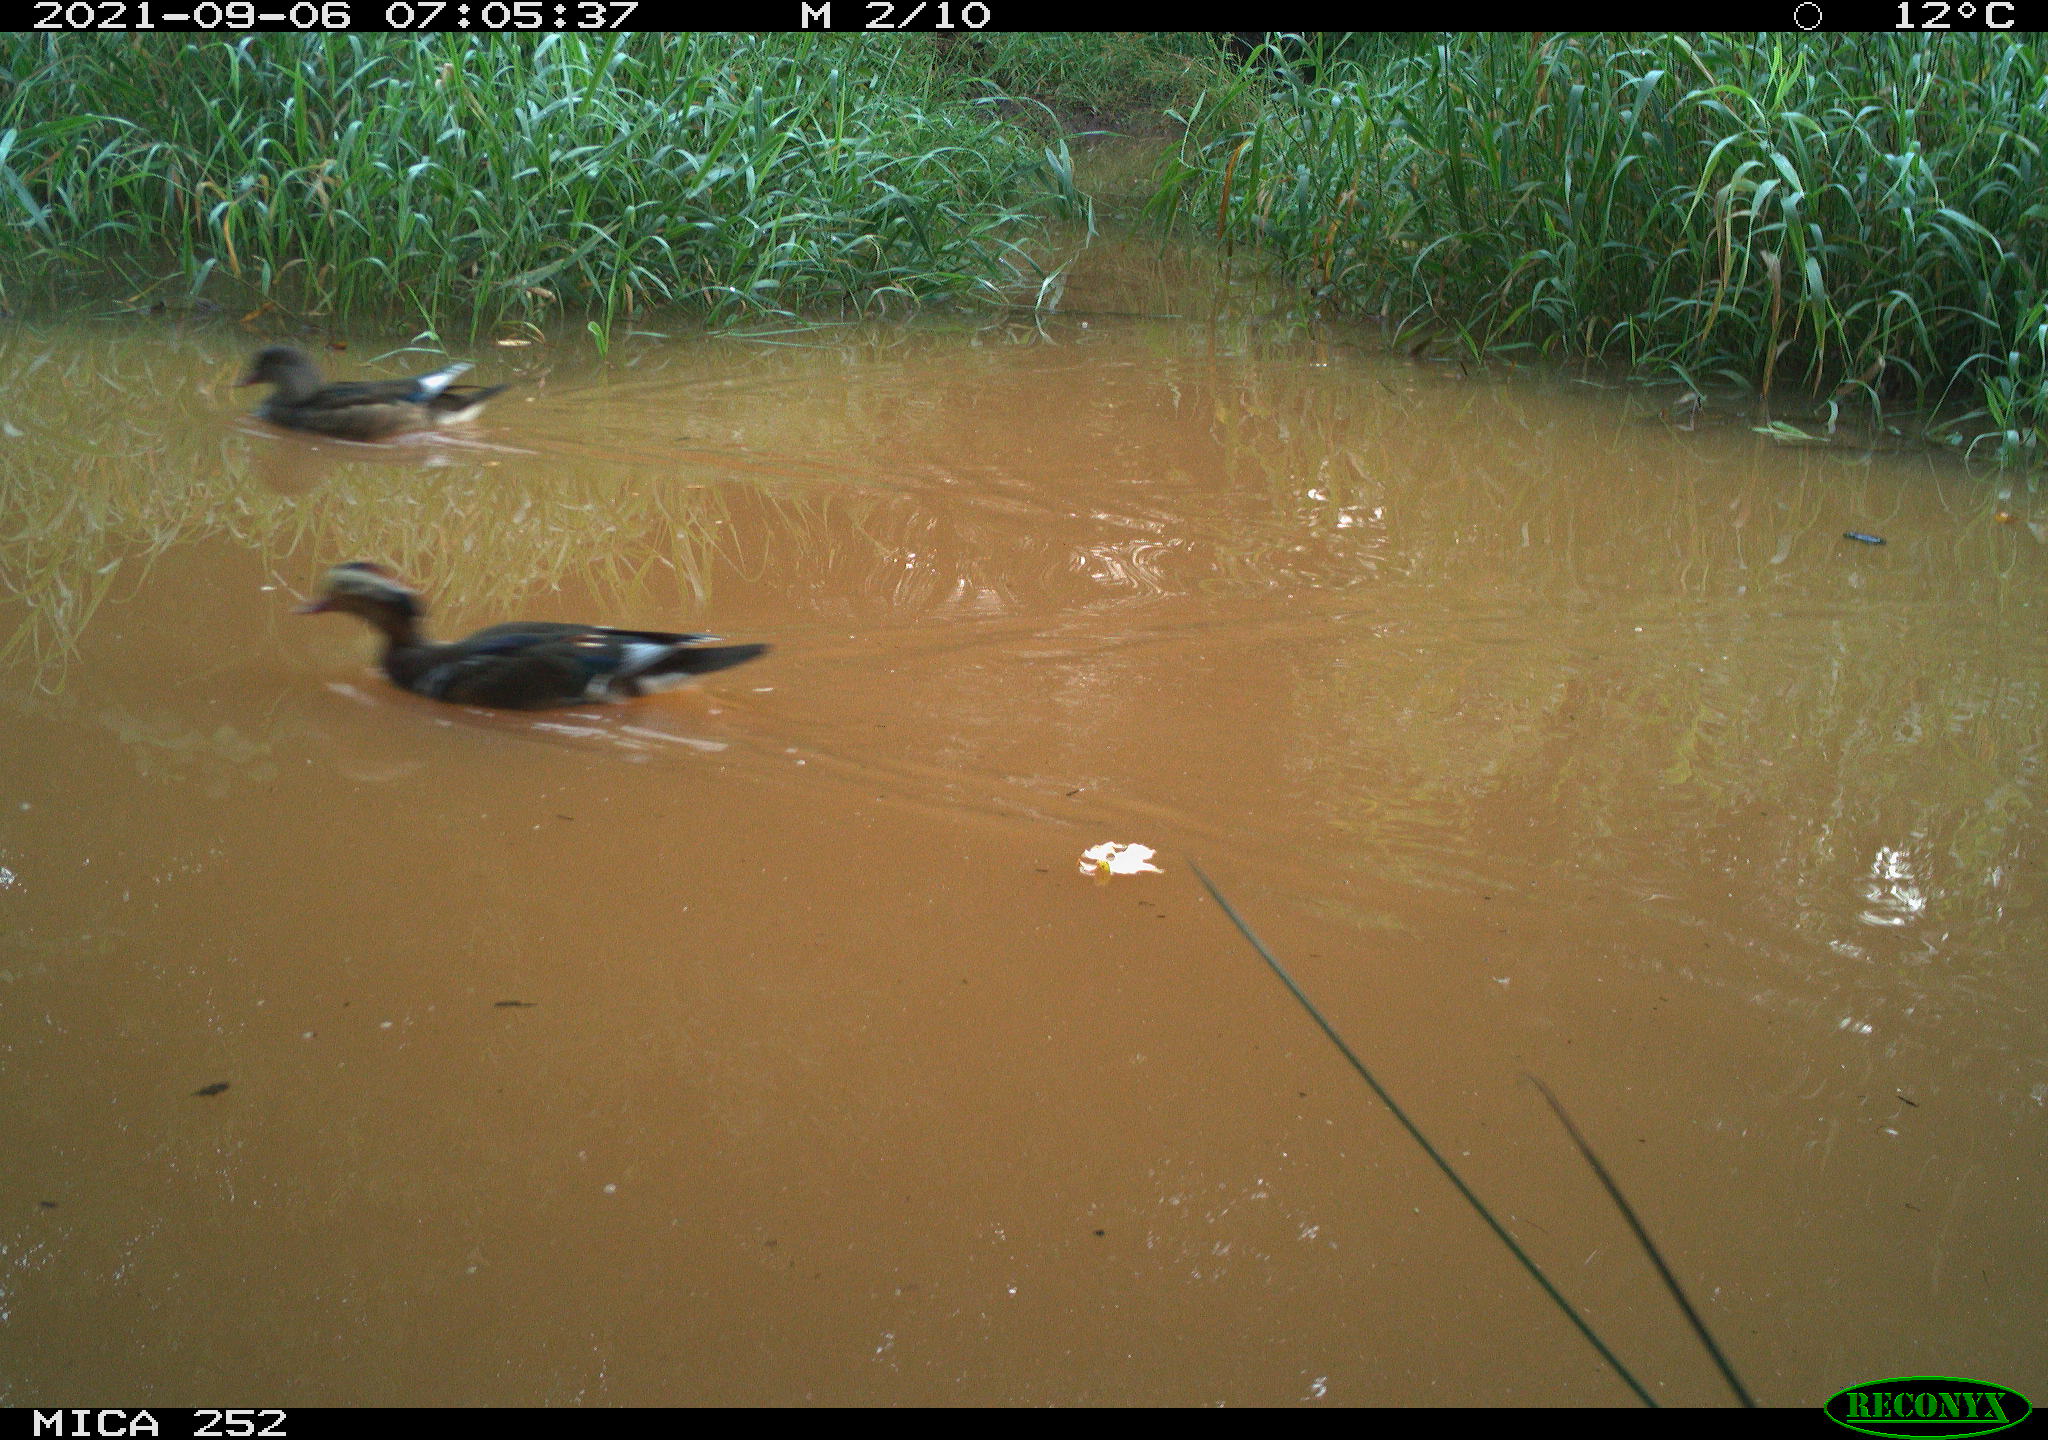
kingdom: Animalia
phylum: Chordata
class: Aves
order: Anseriformes
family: Anatidae
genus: Anas
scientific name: Anas
